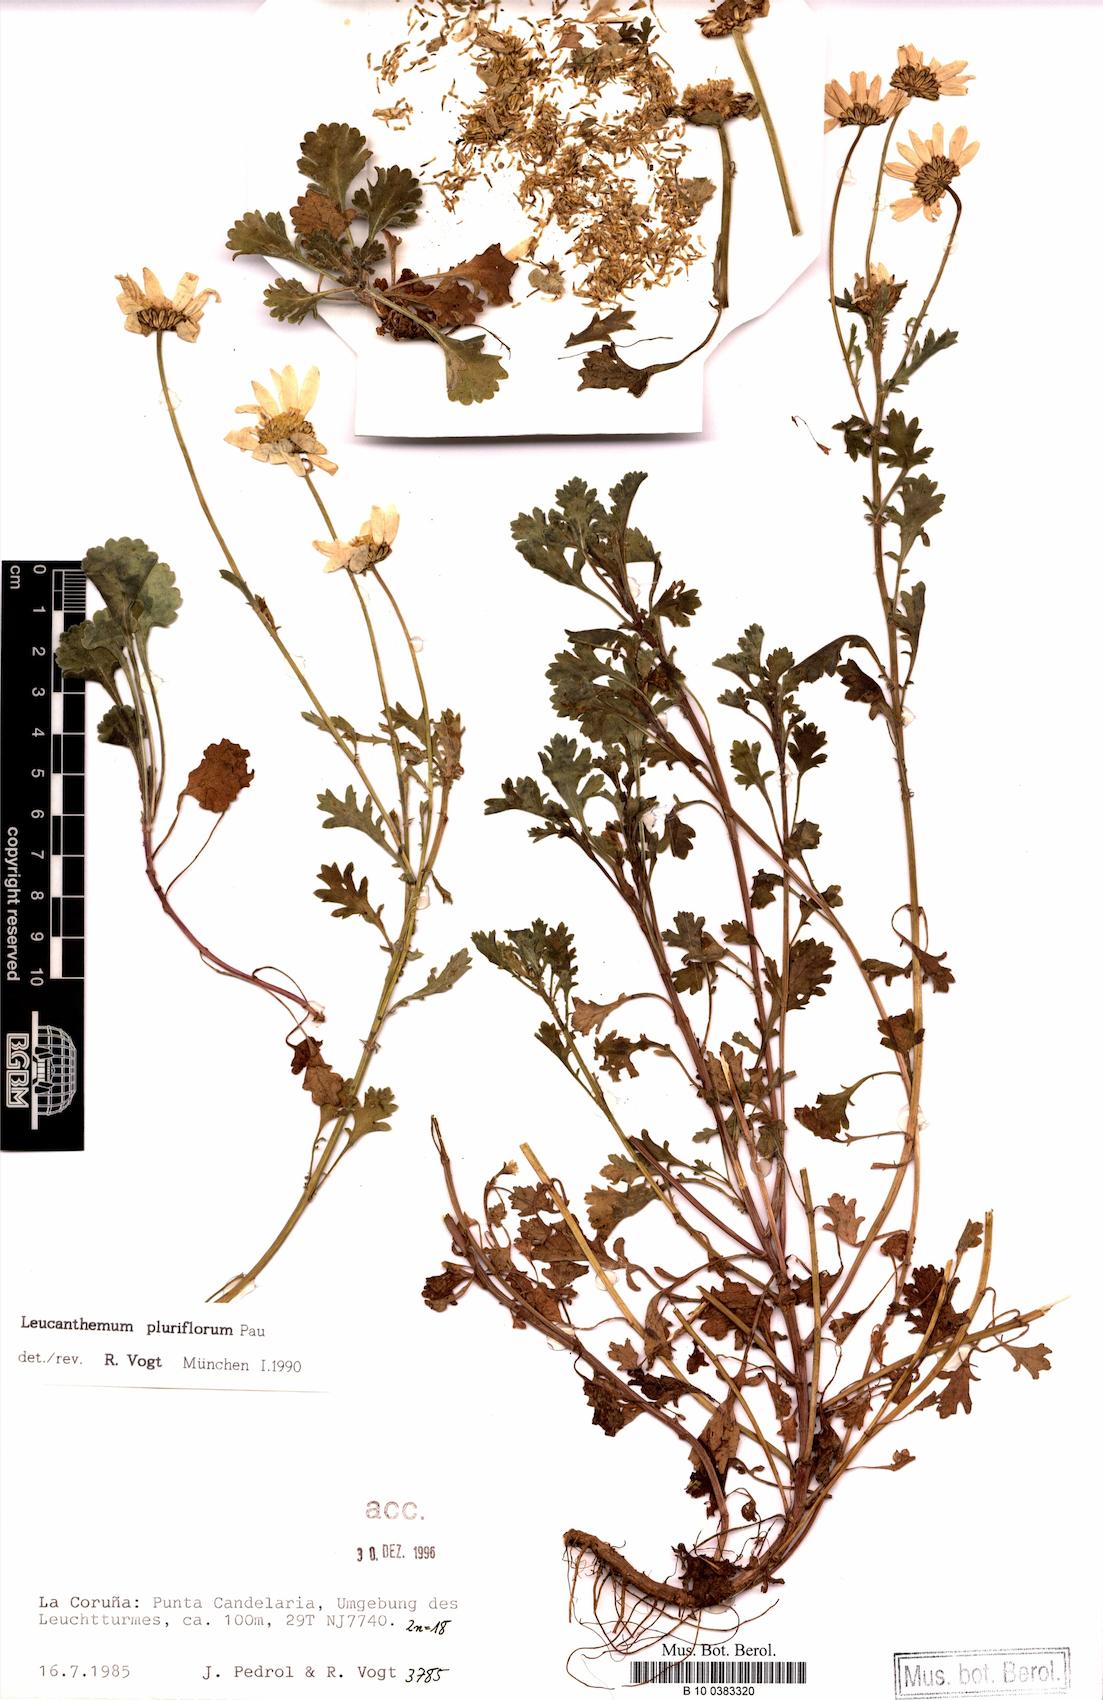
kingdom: Plantae
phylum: Tracheophyta
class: Magnoliopsida
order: Asterales
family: Asteraceae
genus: Leucanthemum
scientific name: Leucanthemum pluriflorum
